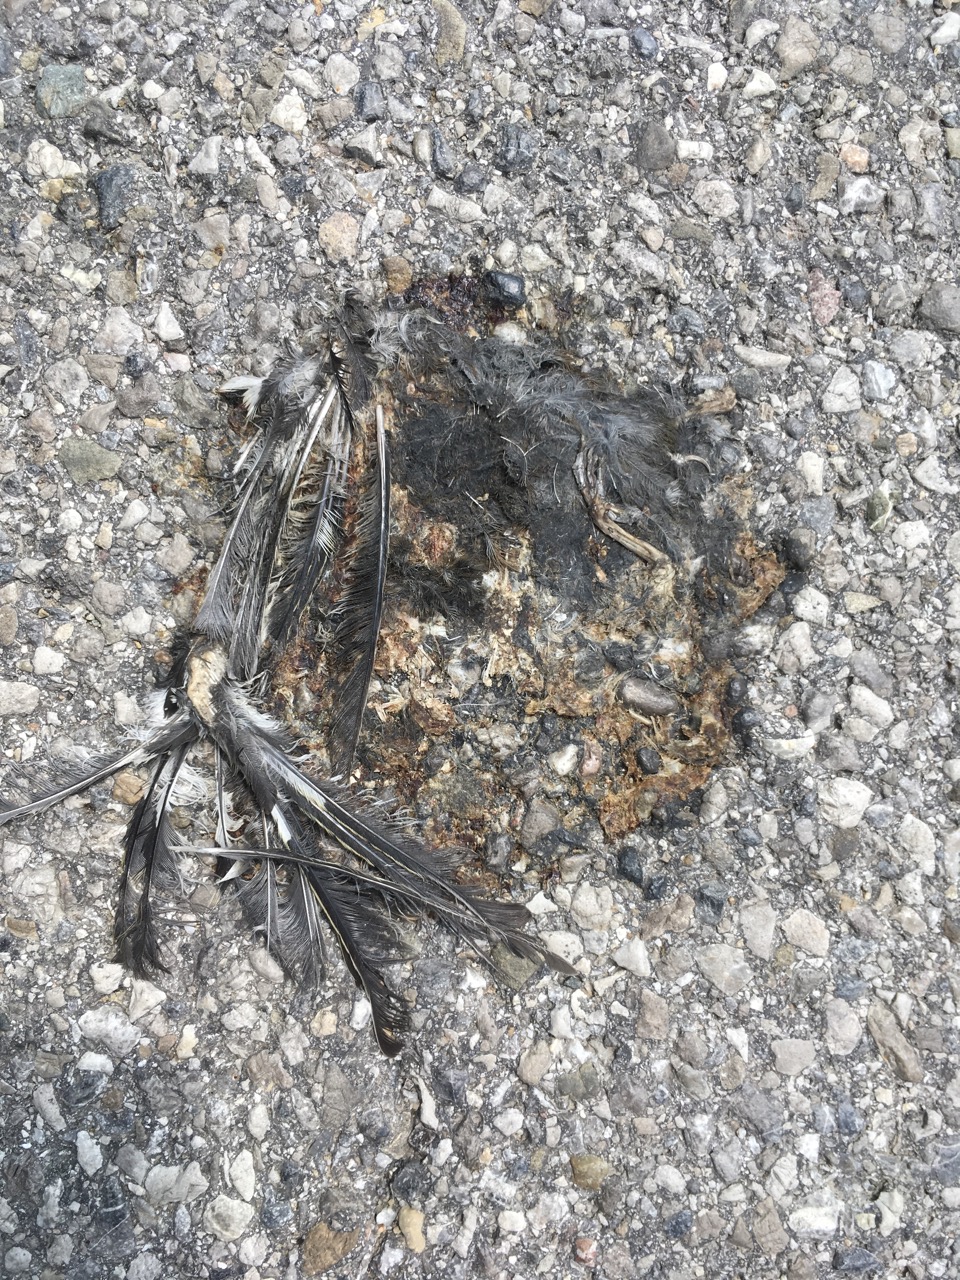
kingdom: Animalia
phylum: Chordata
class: Aves
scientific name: Aves
